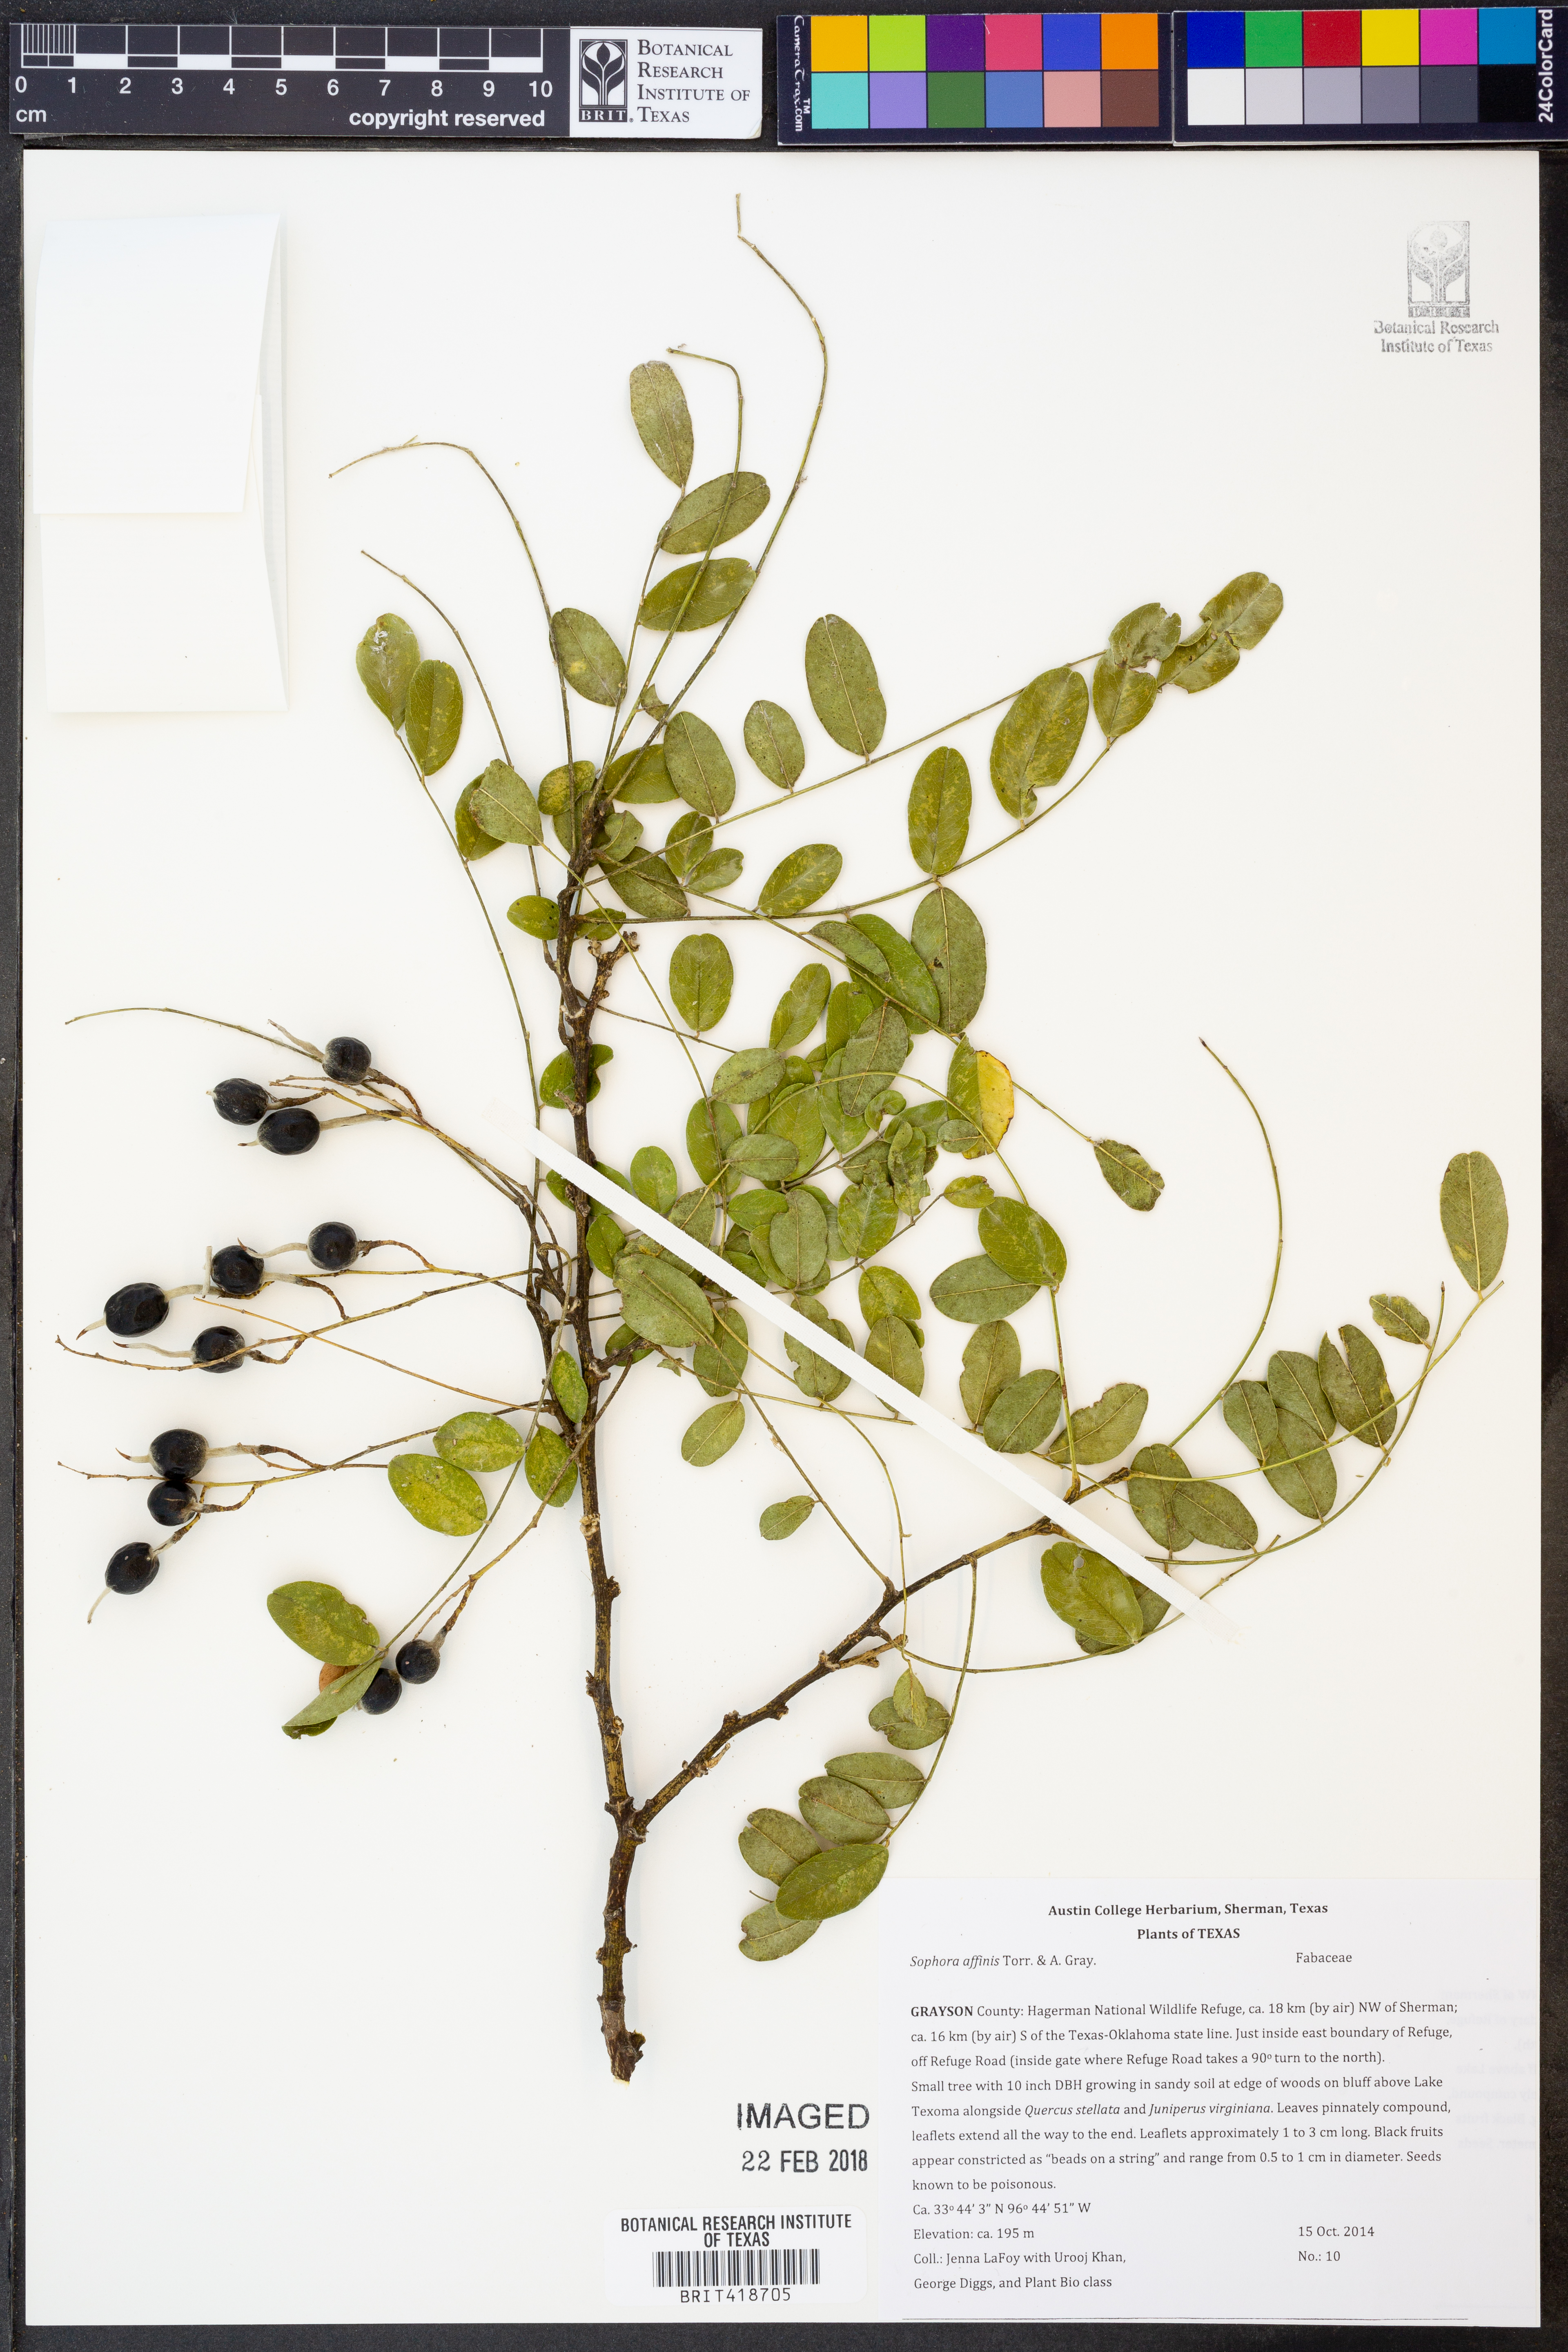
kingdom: Plantae
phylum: Tracheophyta
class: Magnoliopsida
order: Fabales
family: Fabaceae
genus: Styphnolobium
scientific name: Styphnolobium affine
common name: Texas sophora
